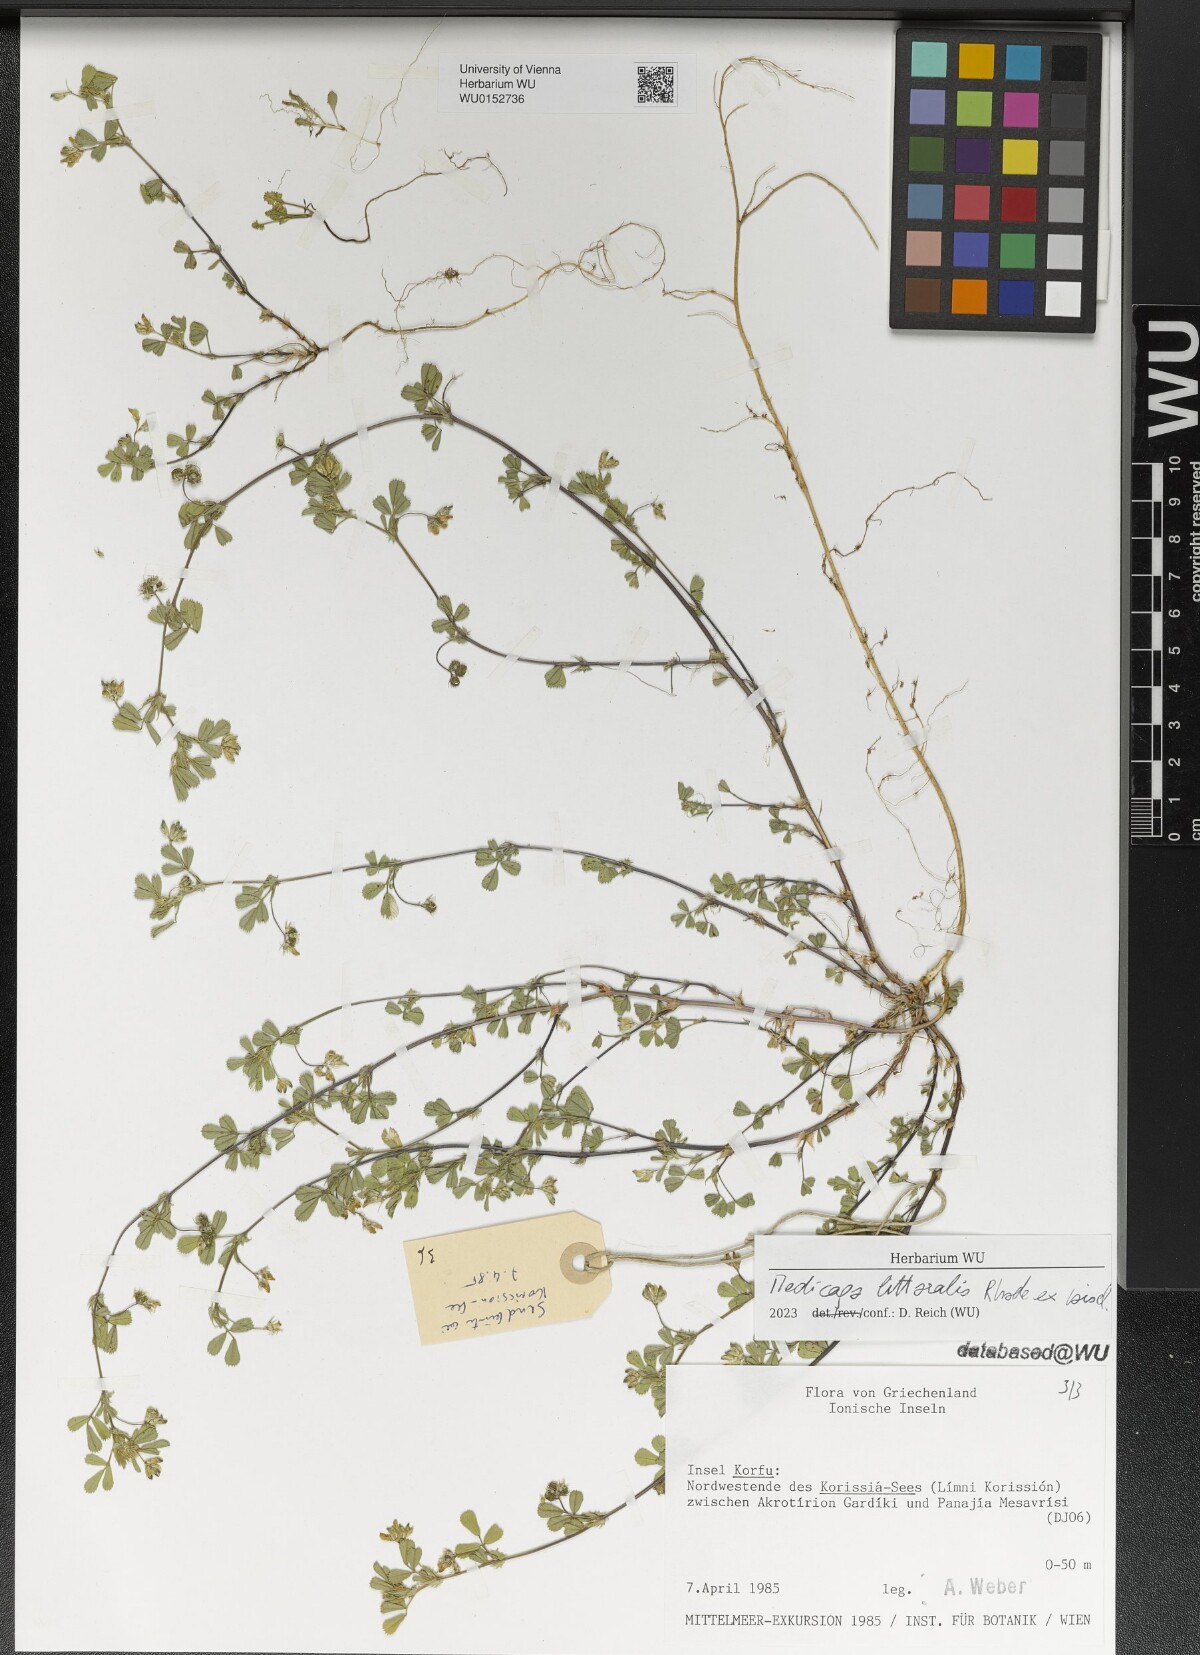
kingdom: Plantae
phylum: Tracheophyta
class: Magnoliopsida
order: Fabales
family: Fabaceae
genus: Medicago
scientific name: Medicago littoralis
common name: Shore medick
